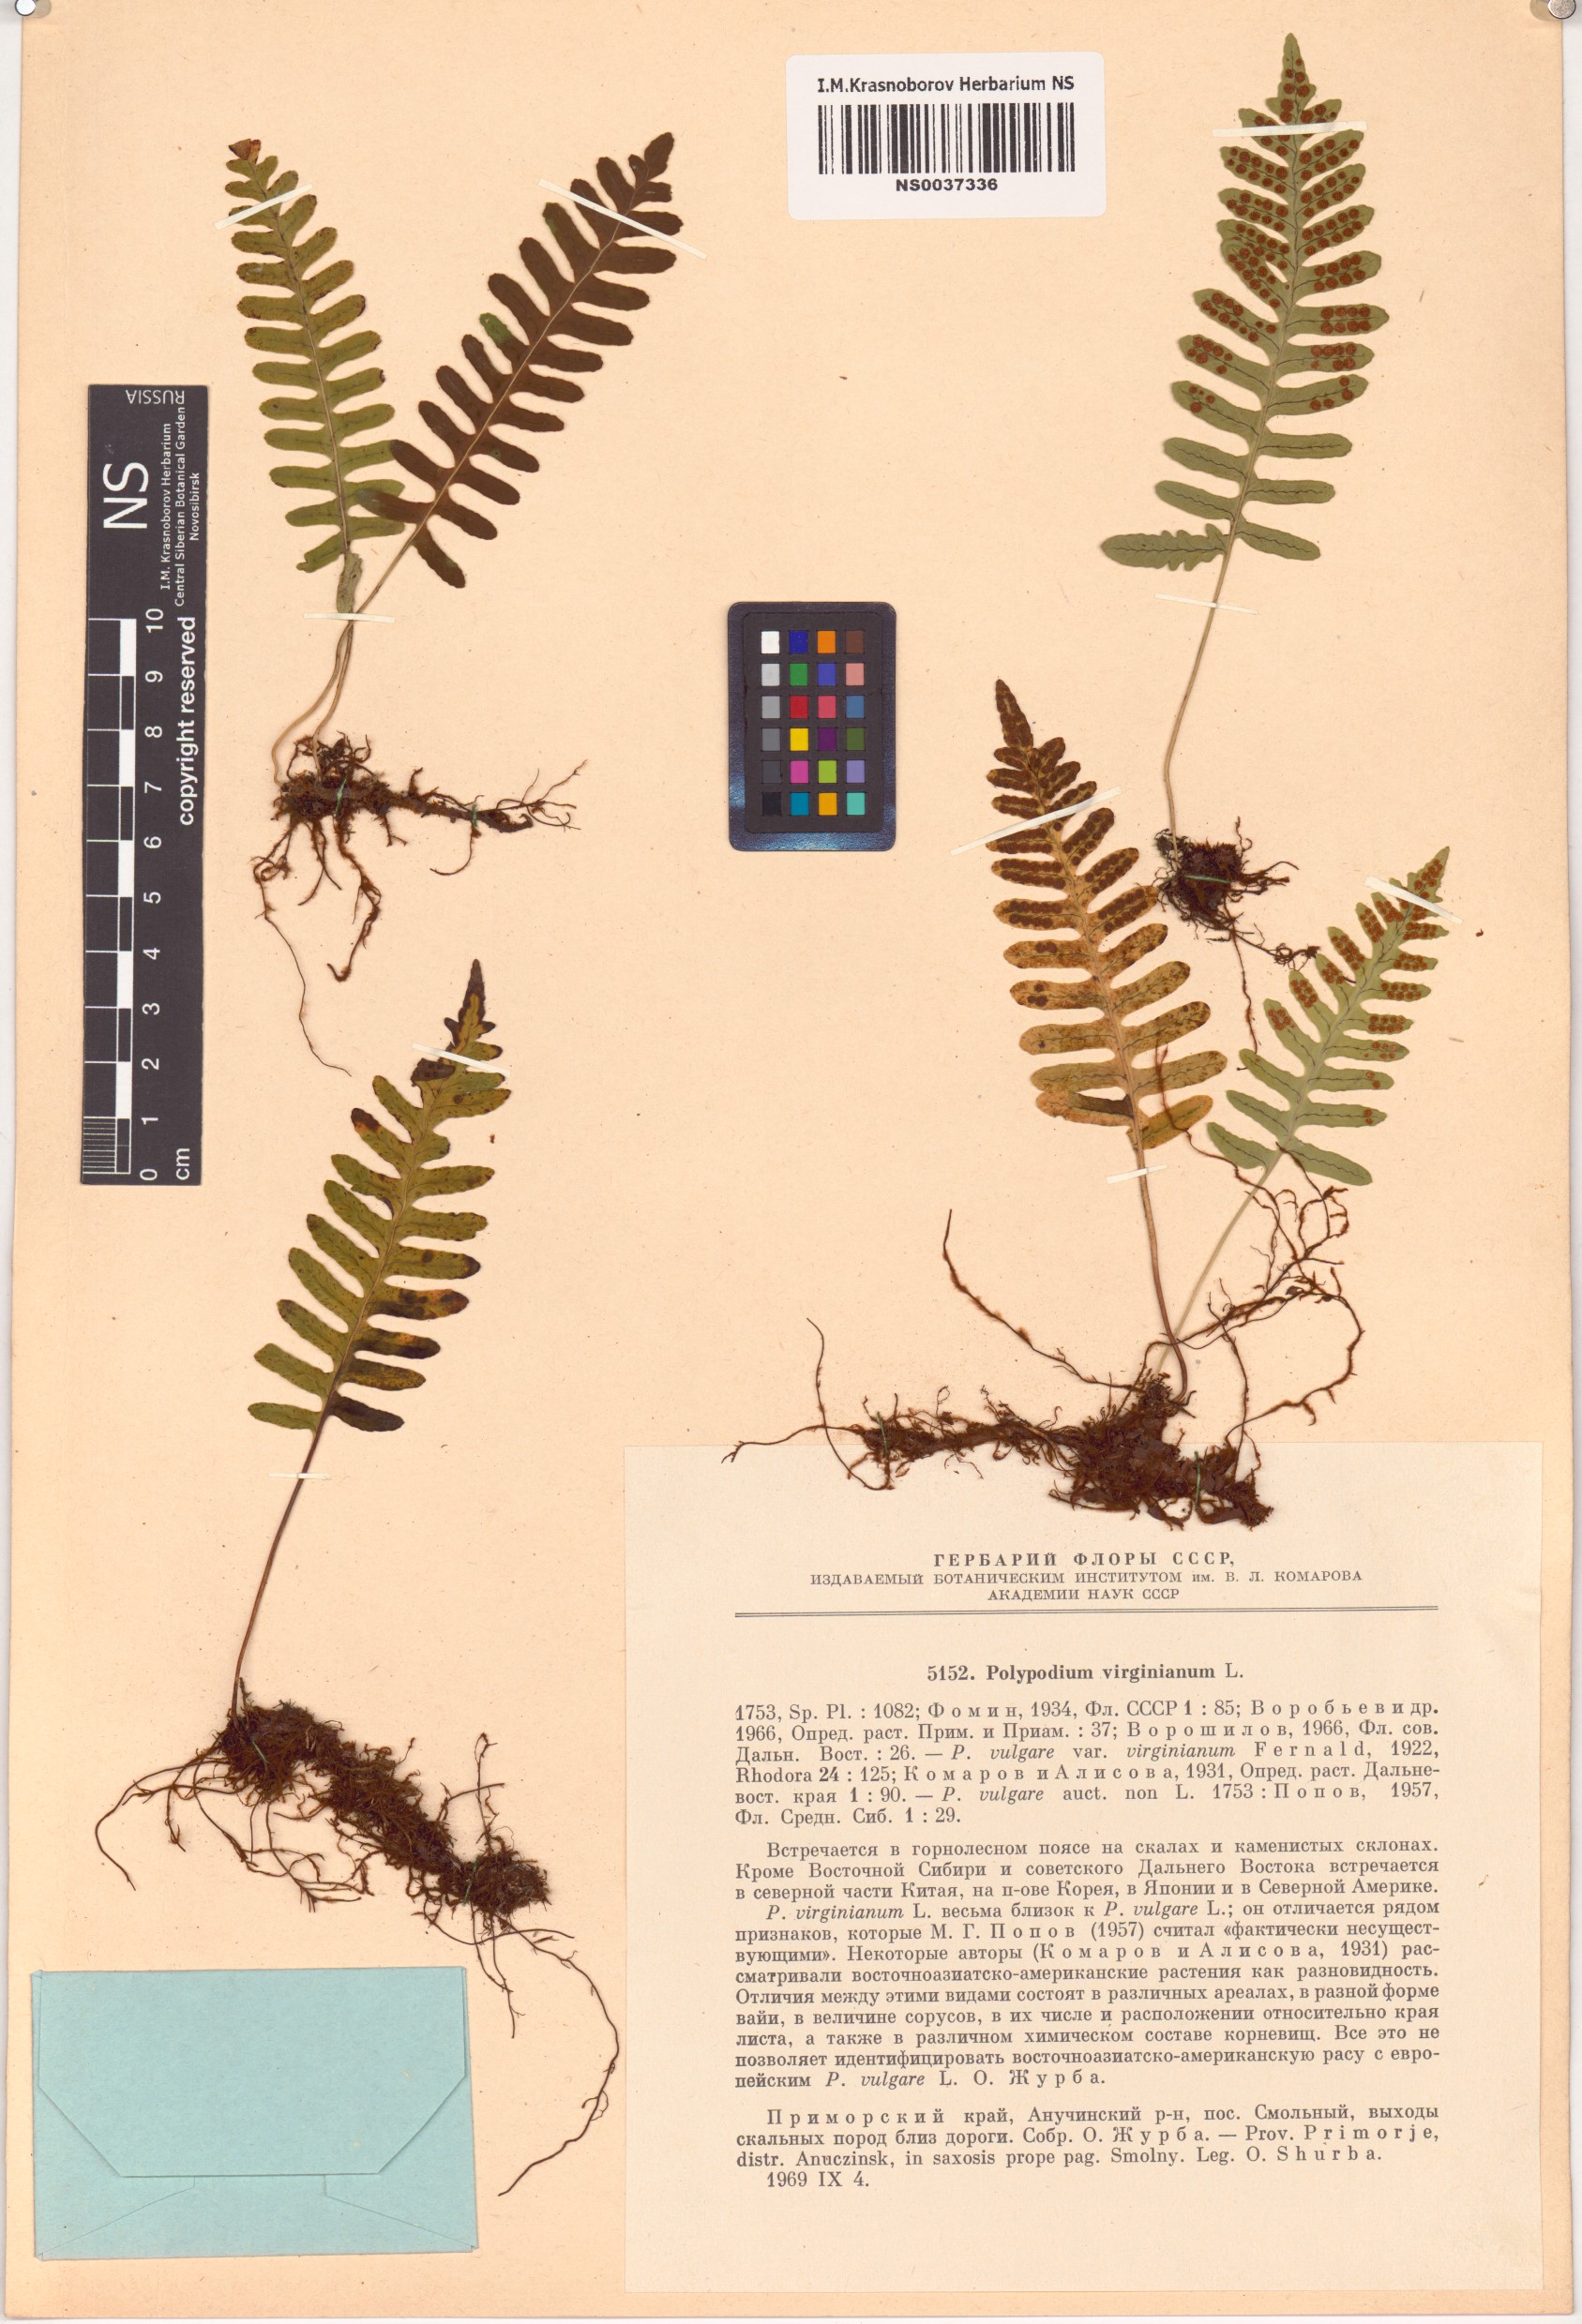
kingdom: Plantae
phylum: Tracheophyta
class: Polypodiopsida
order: Polypodiales
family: Polypodiaceae
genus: Polypodium
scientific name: Polypodium virginianum
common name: American wall fern
